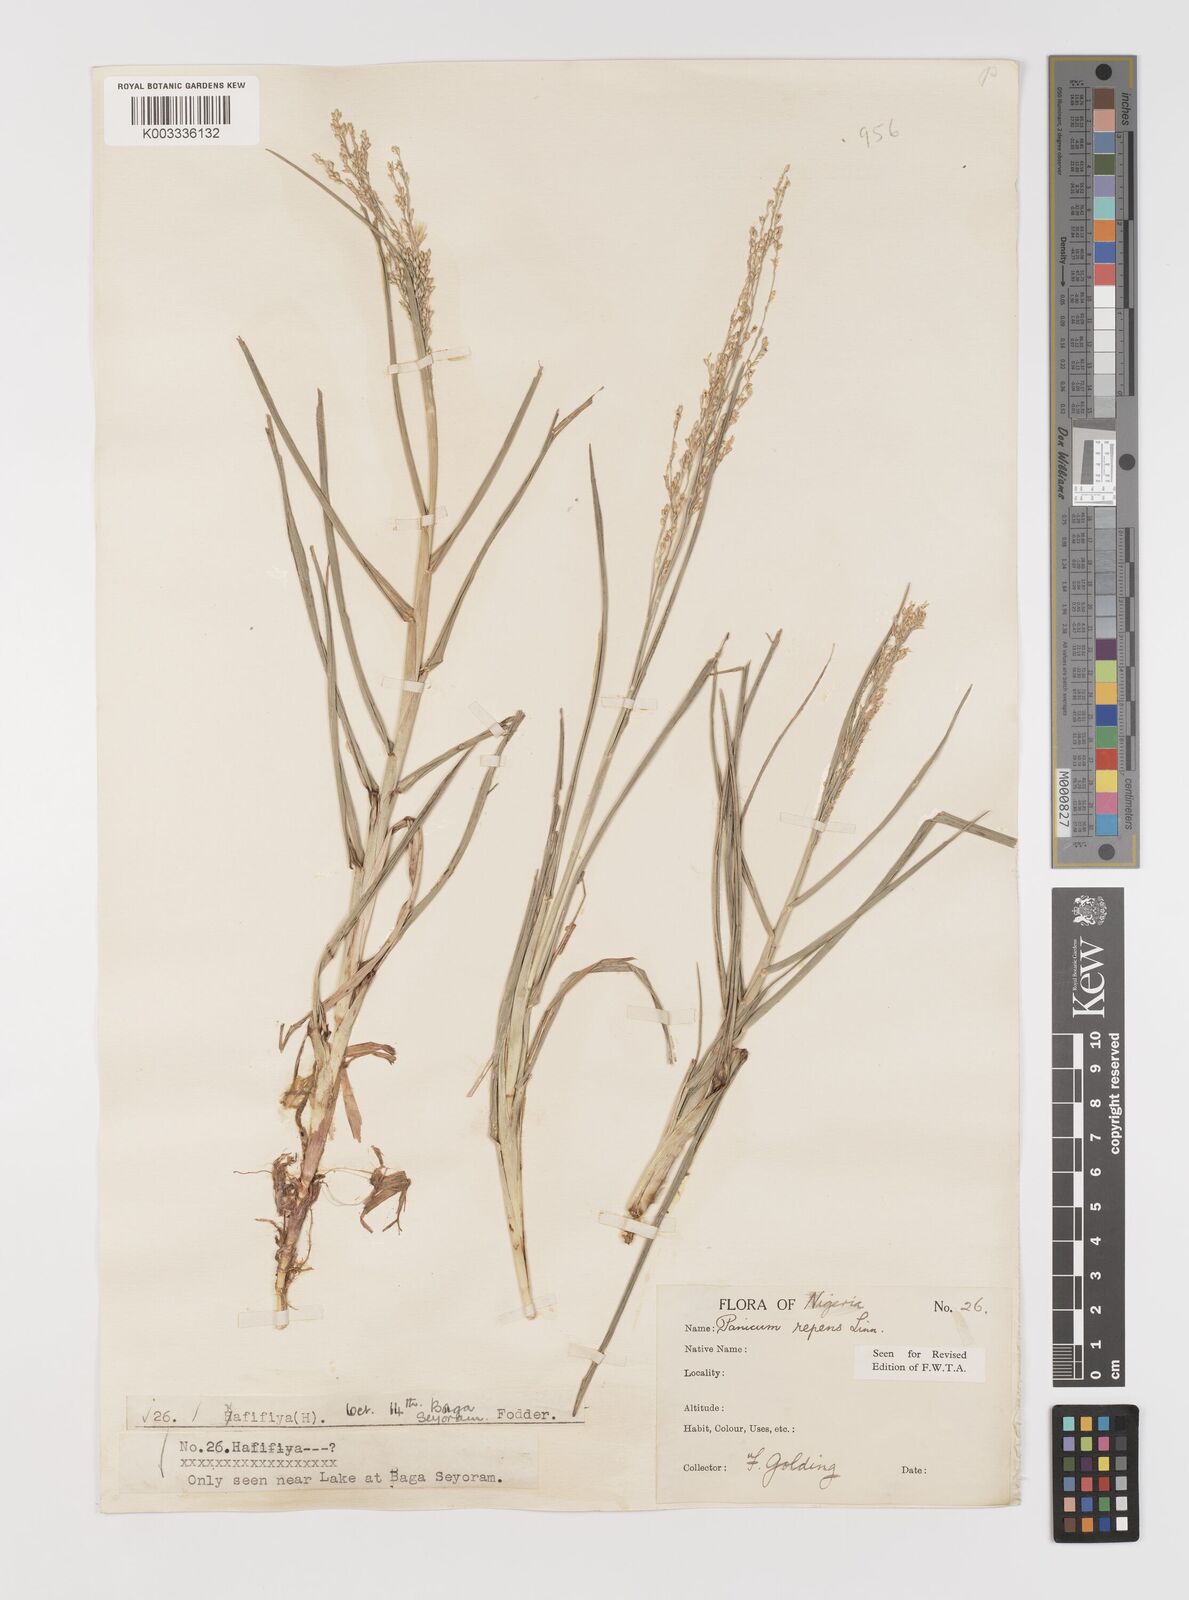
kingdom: Plantae
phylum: Tracheophyta
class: Liliopsida
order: Poales
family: Poaceae
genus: Panicum
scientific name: Panicum repens
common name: Torpedo grass
